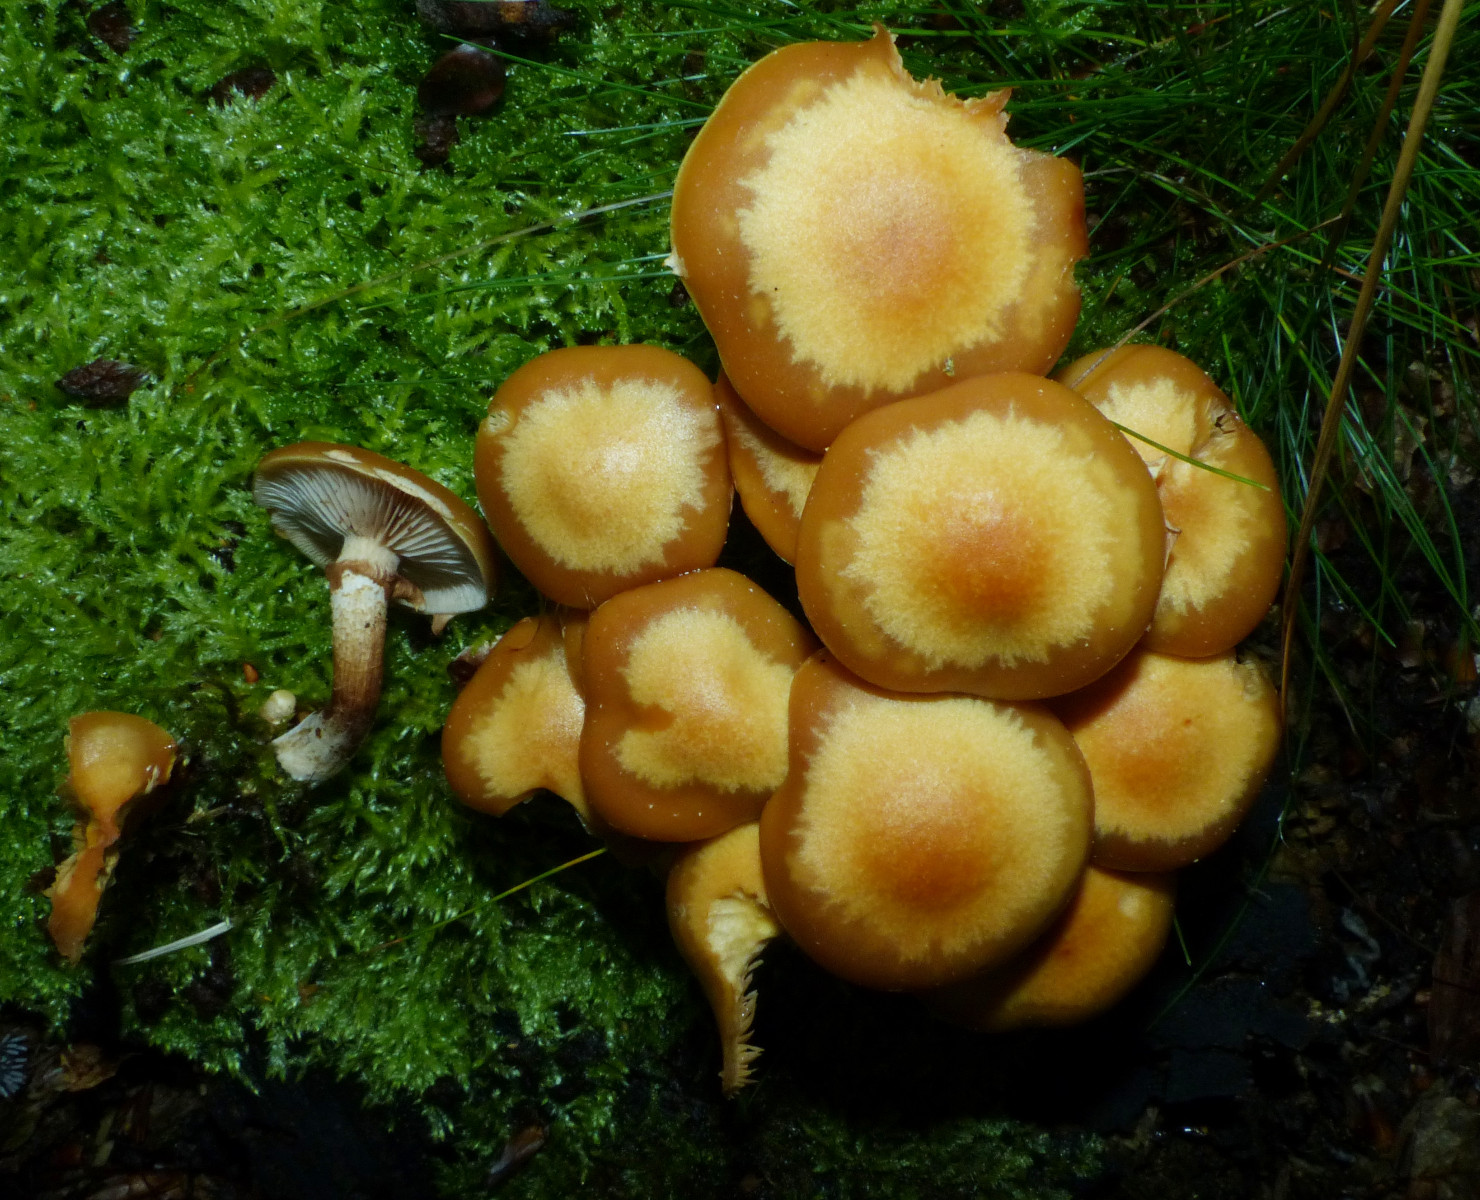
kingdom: Fungi
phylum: Basidiomycota
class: Agaricomycetes
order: Agaricales
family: Strophariaceae
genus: Kuehneromyces
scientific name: Kuehneromyces mutabilis
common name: foranderlig skælhat
